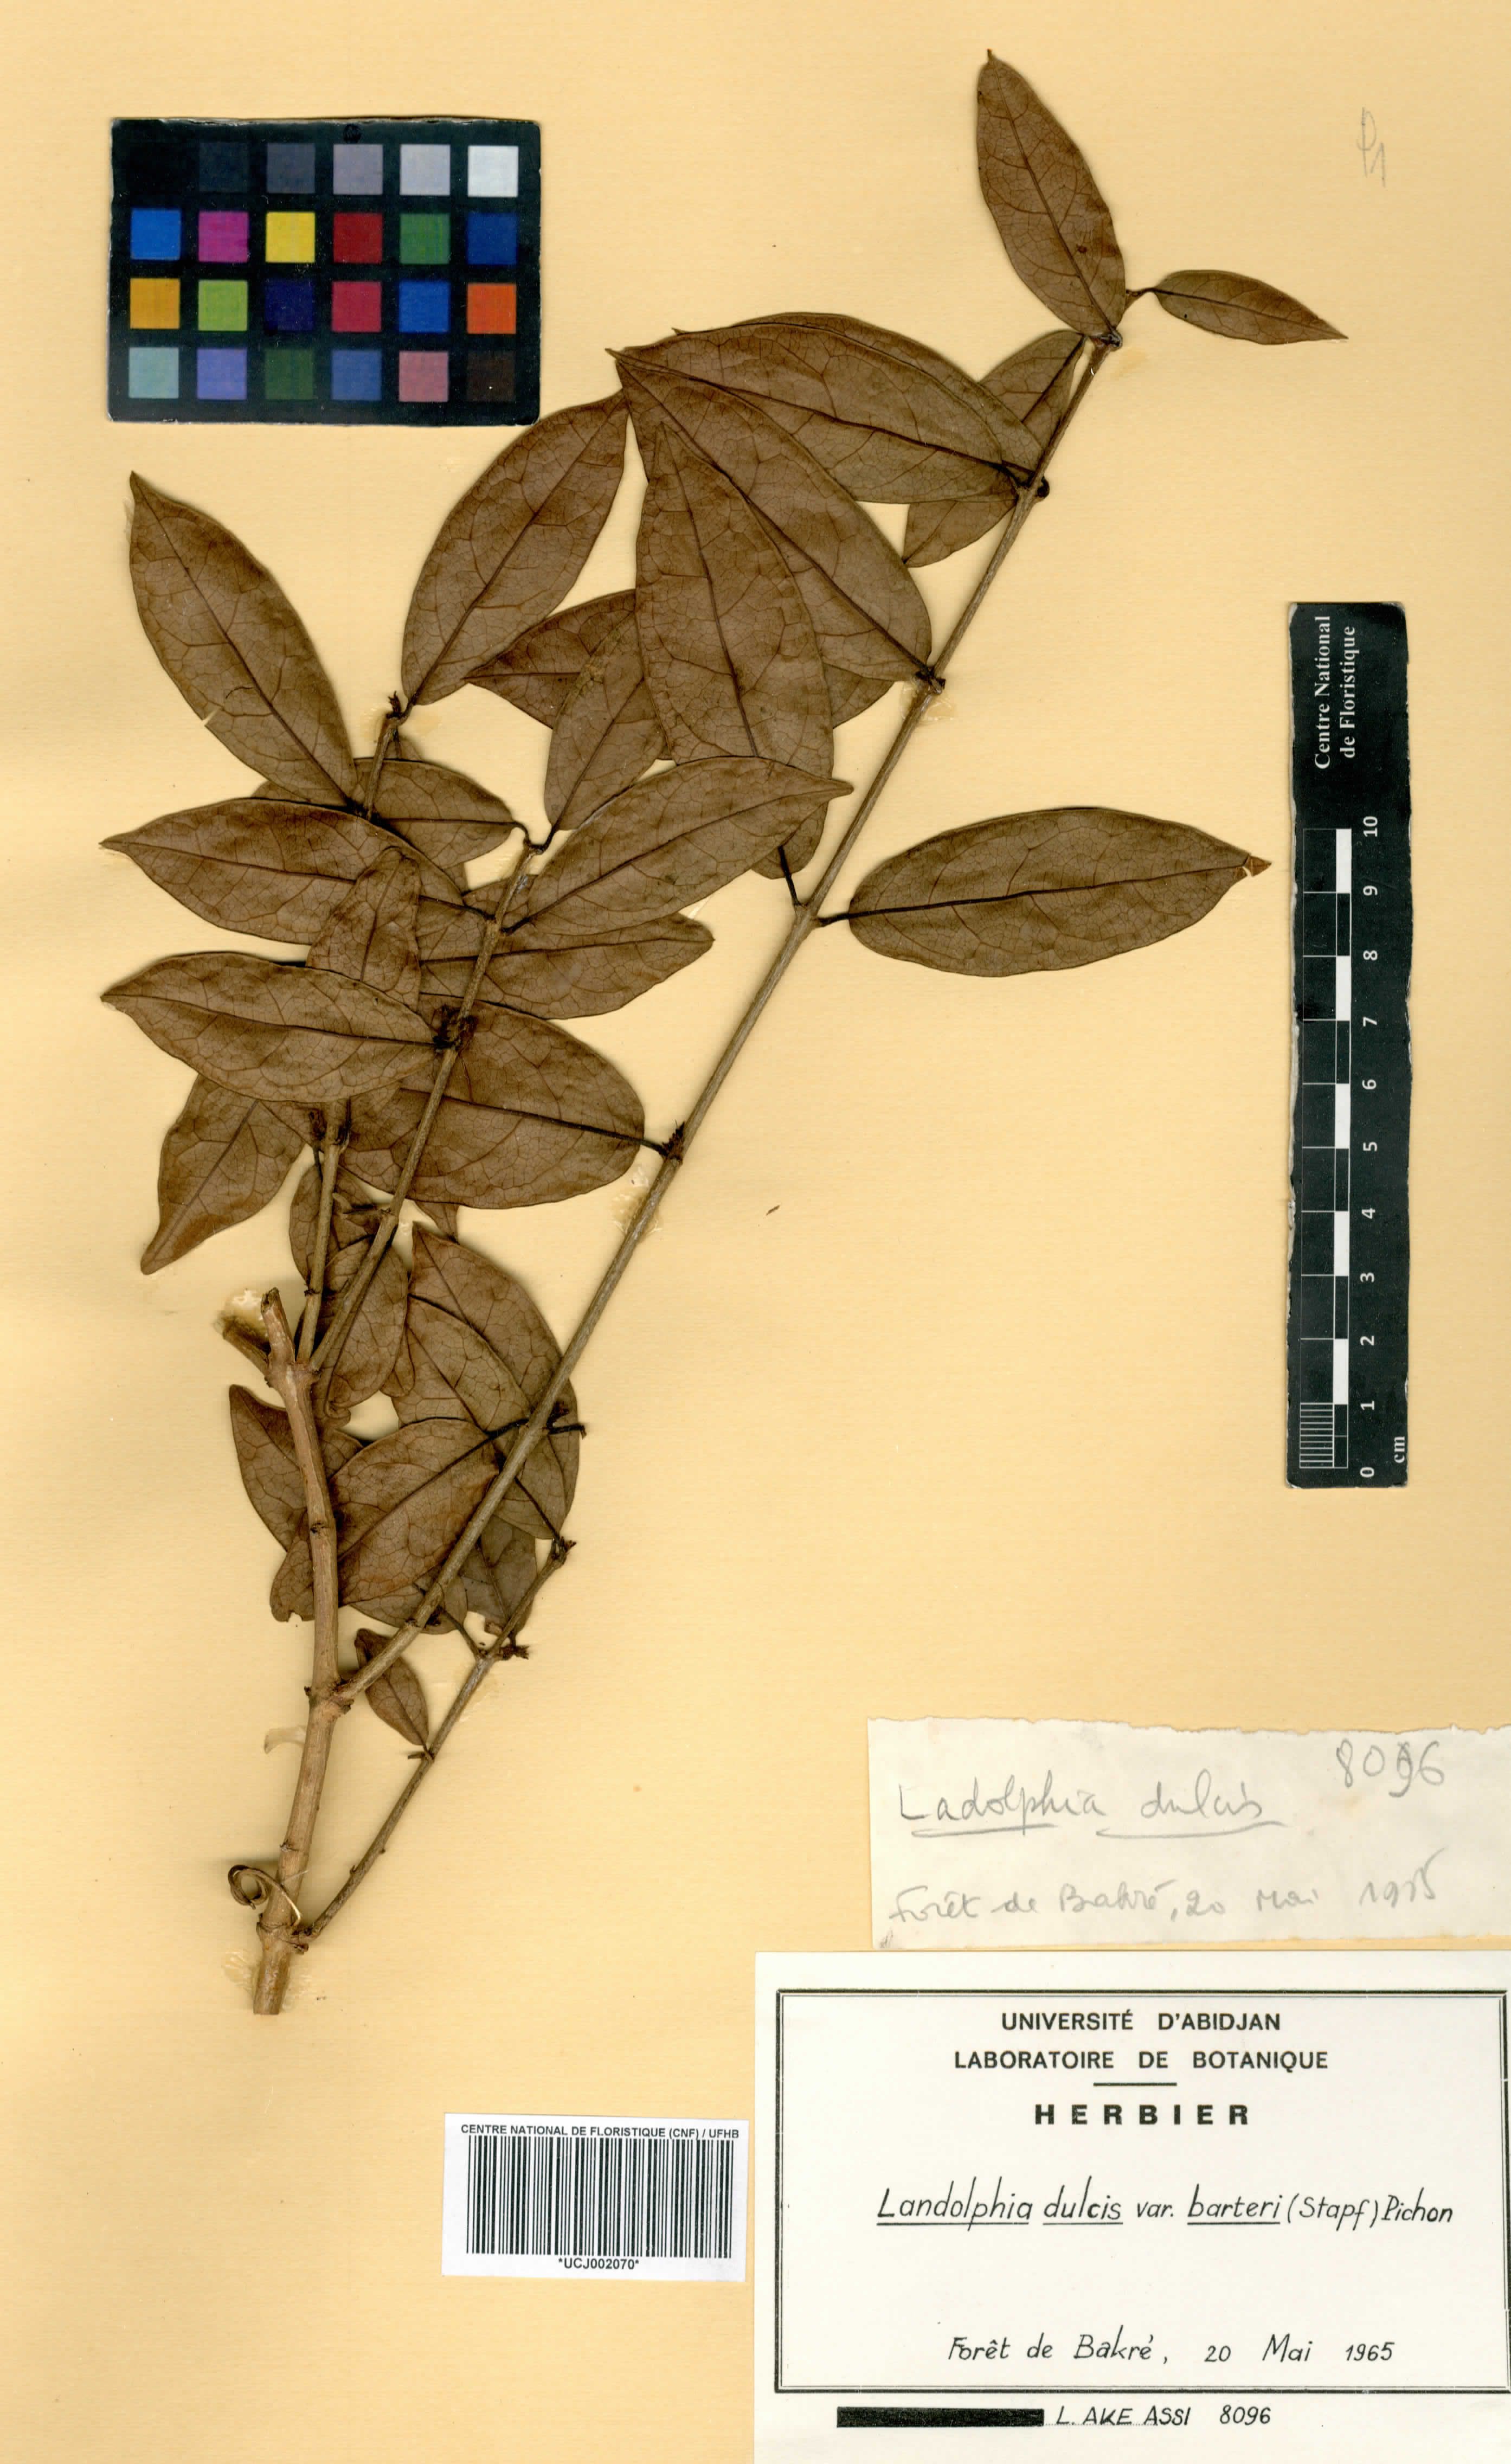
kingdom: Plantae
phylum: Tracheophyta
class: Magnoliopsida
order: Gentianales
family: Apocynaceae
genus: Landolphia
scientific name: Landolphia dulcis
